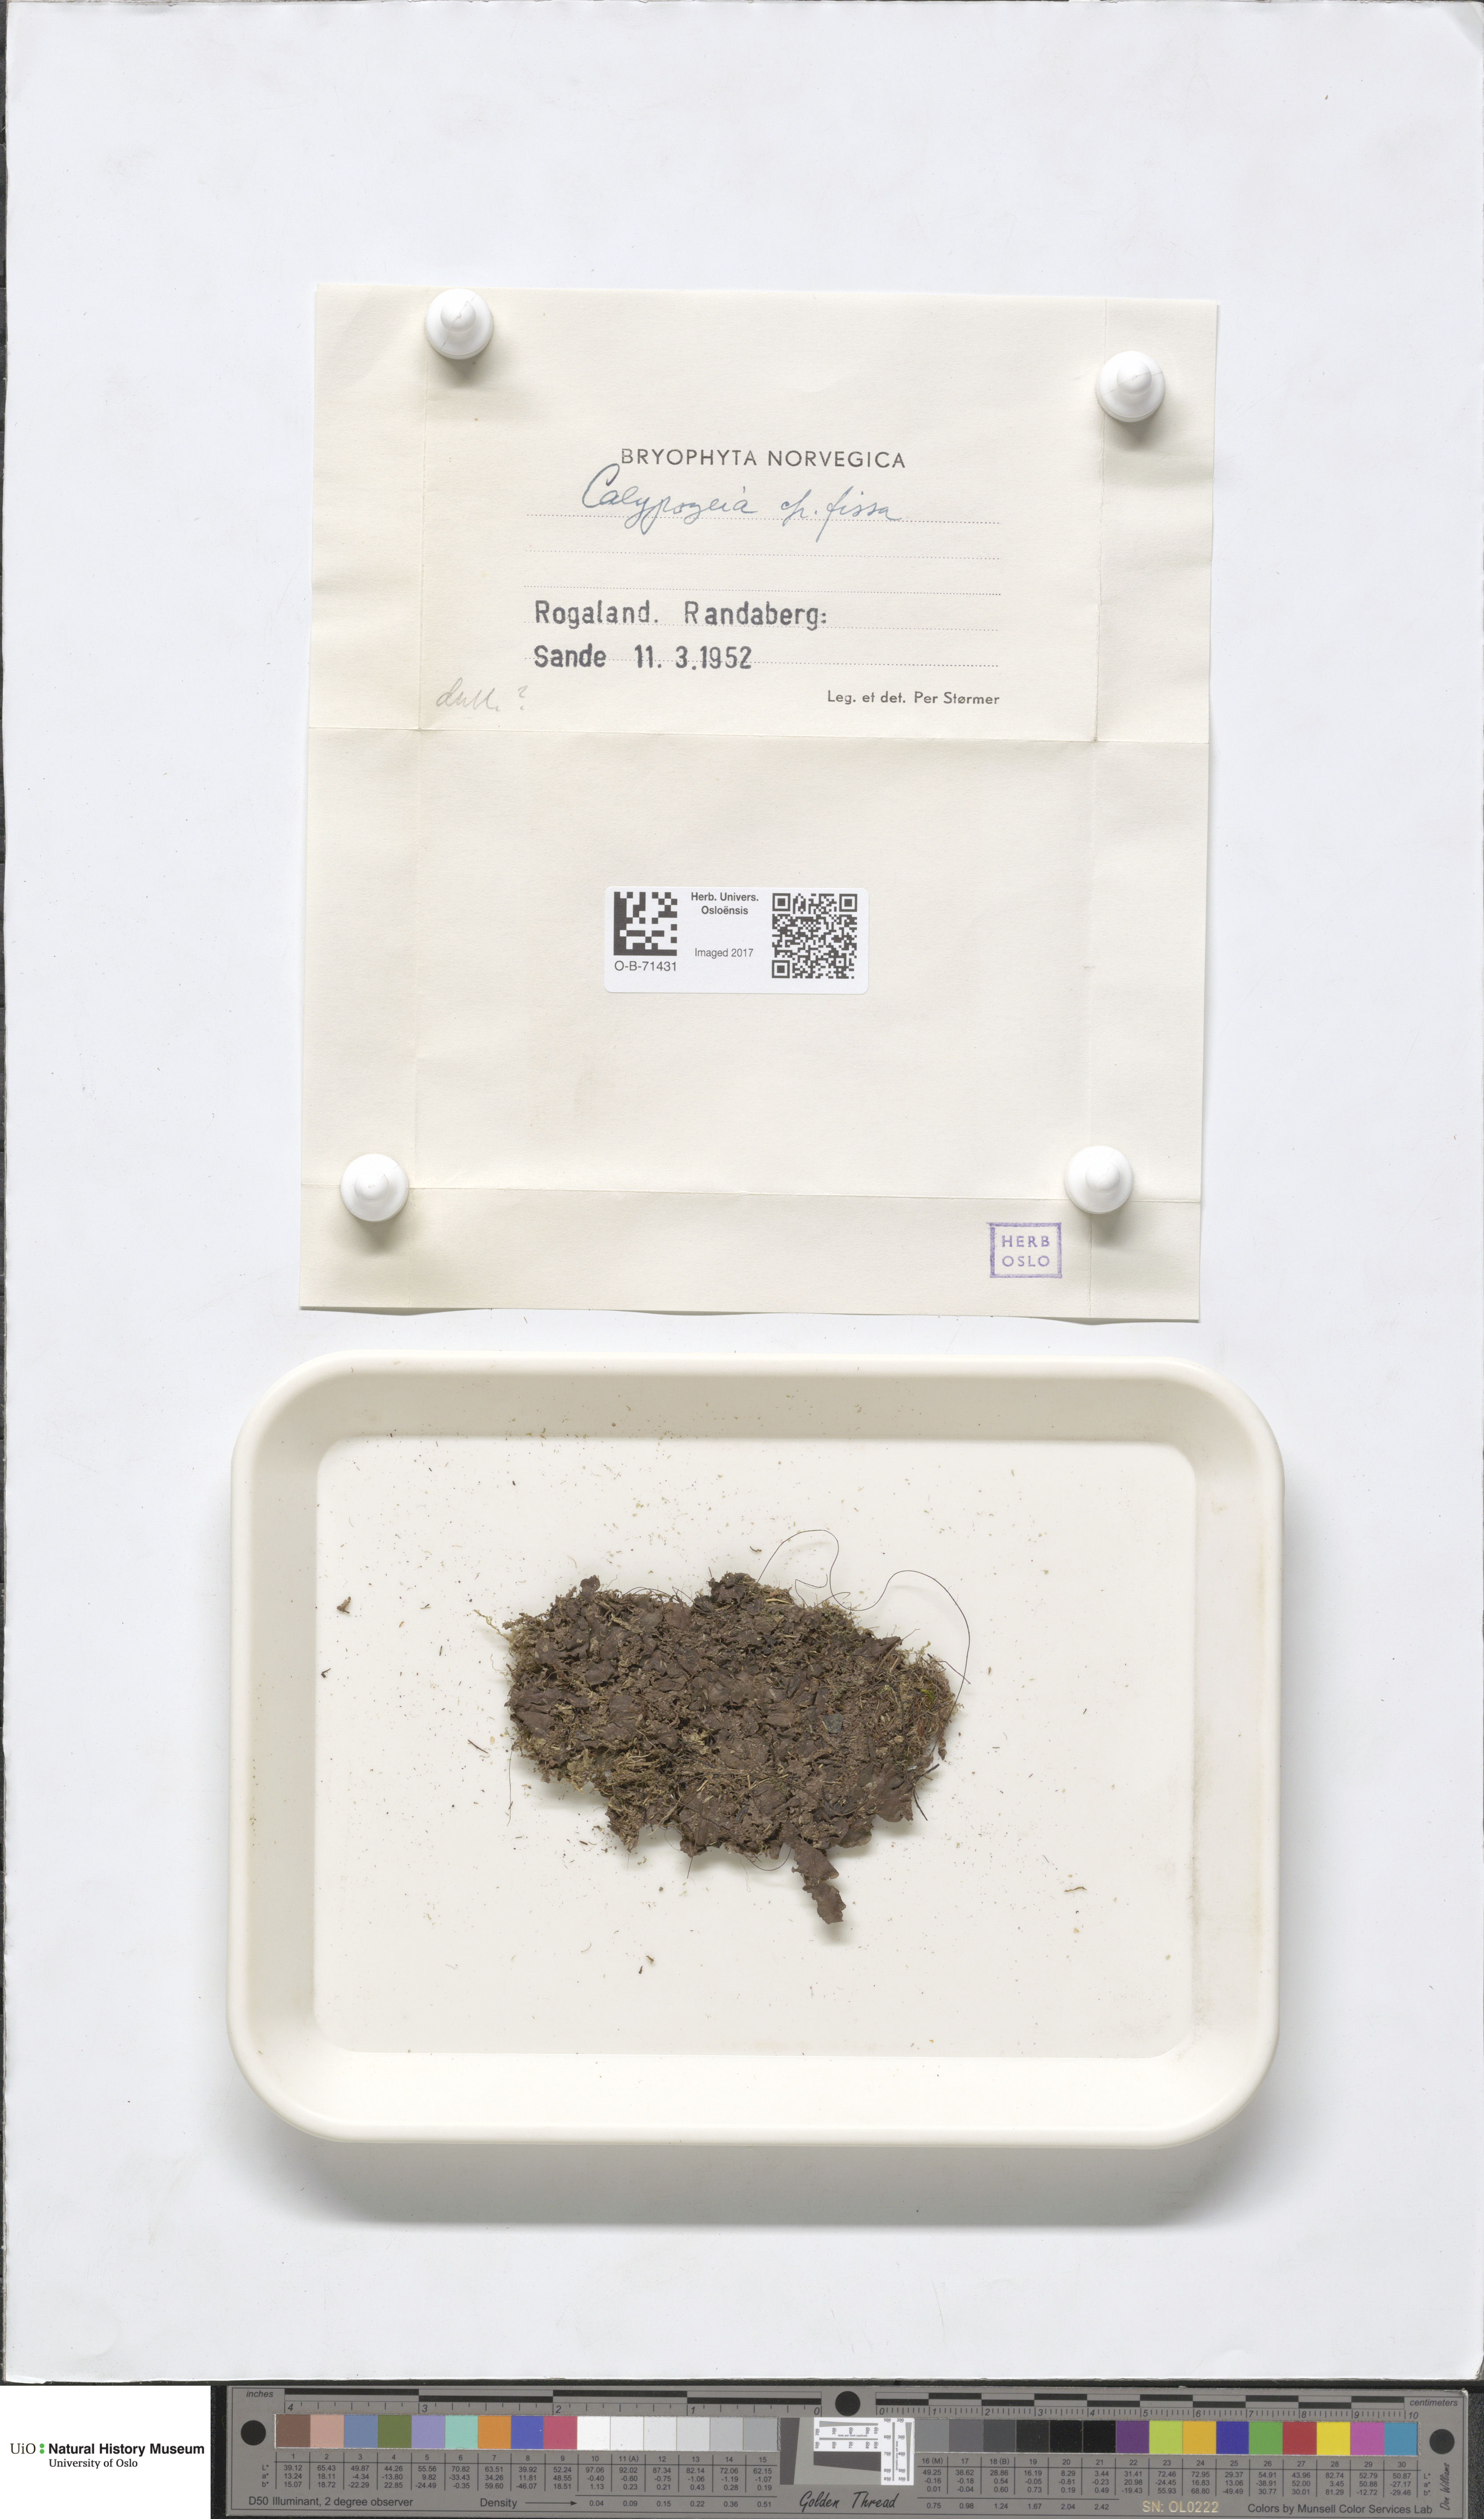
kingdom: Plantae
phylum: Marchantiophyta
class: Jungermanniopsida
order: Jungermanniales
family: Calypogeiaceae
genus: Calypogeia
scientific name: Calypogeia
